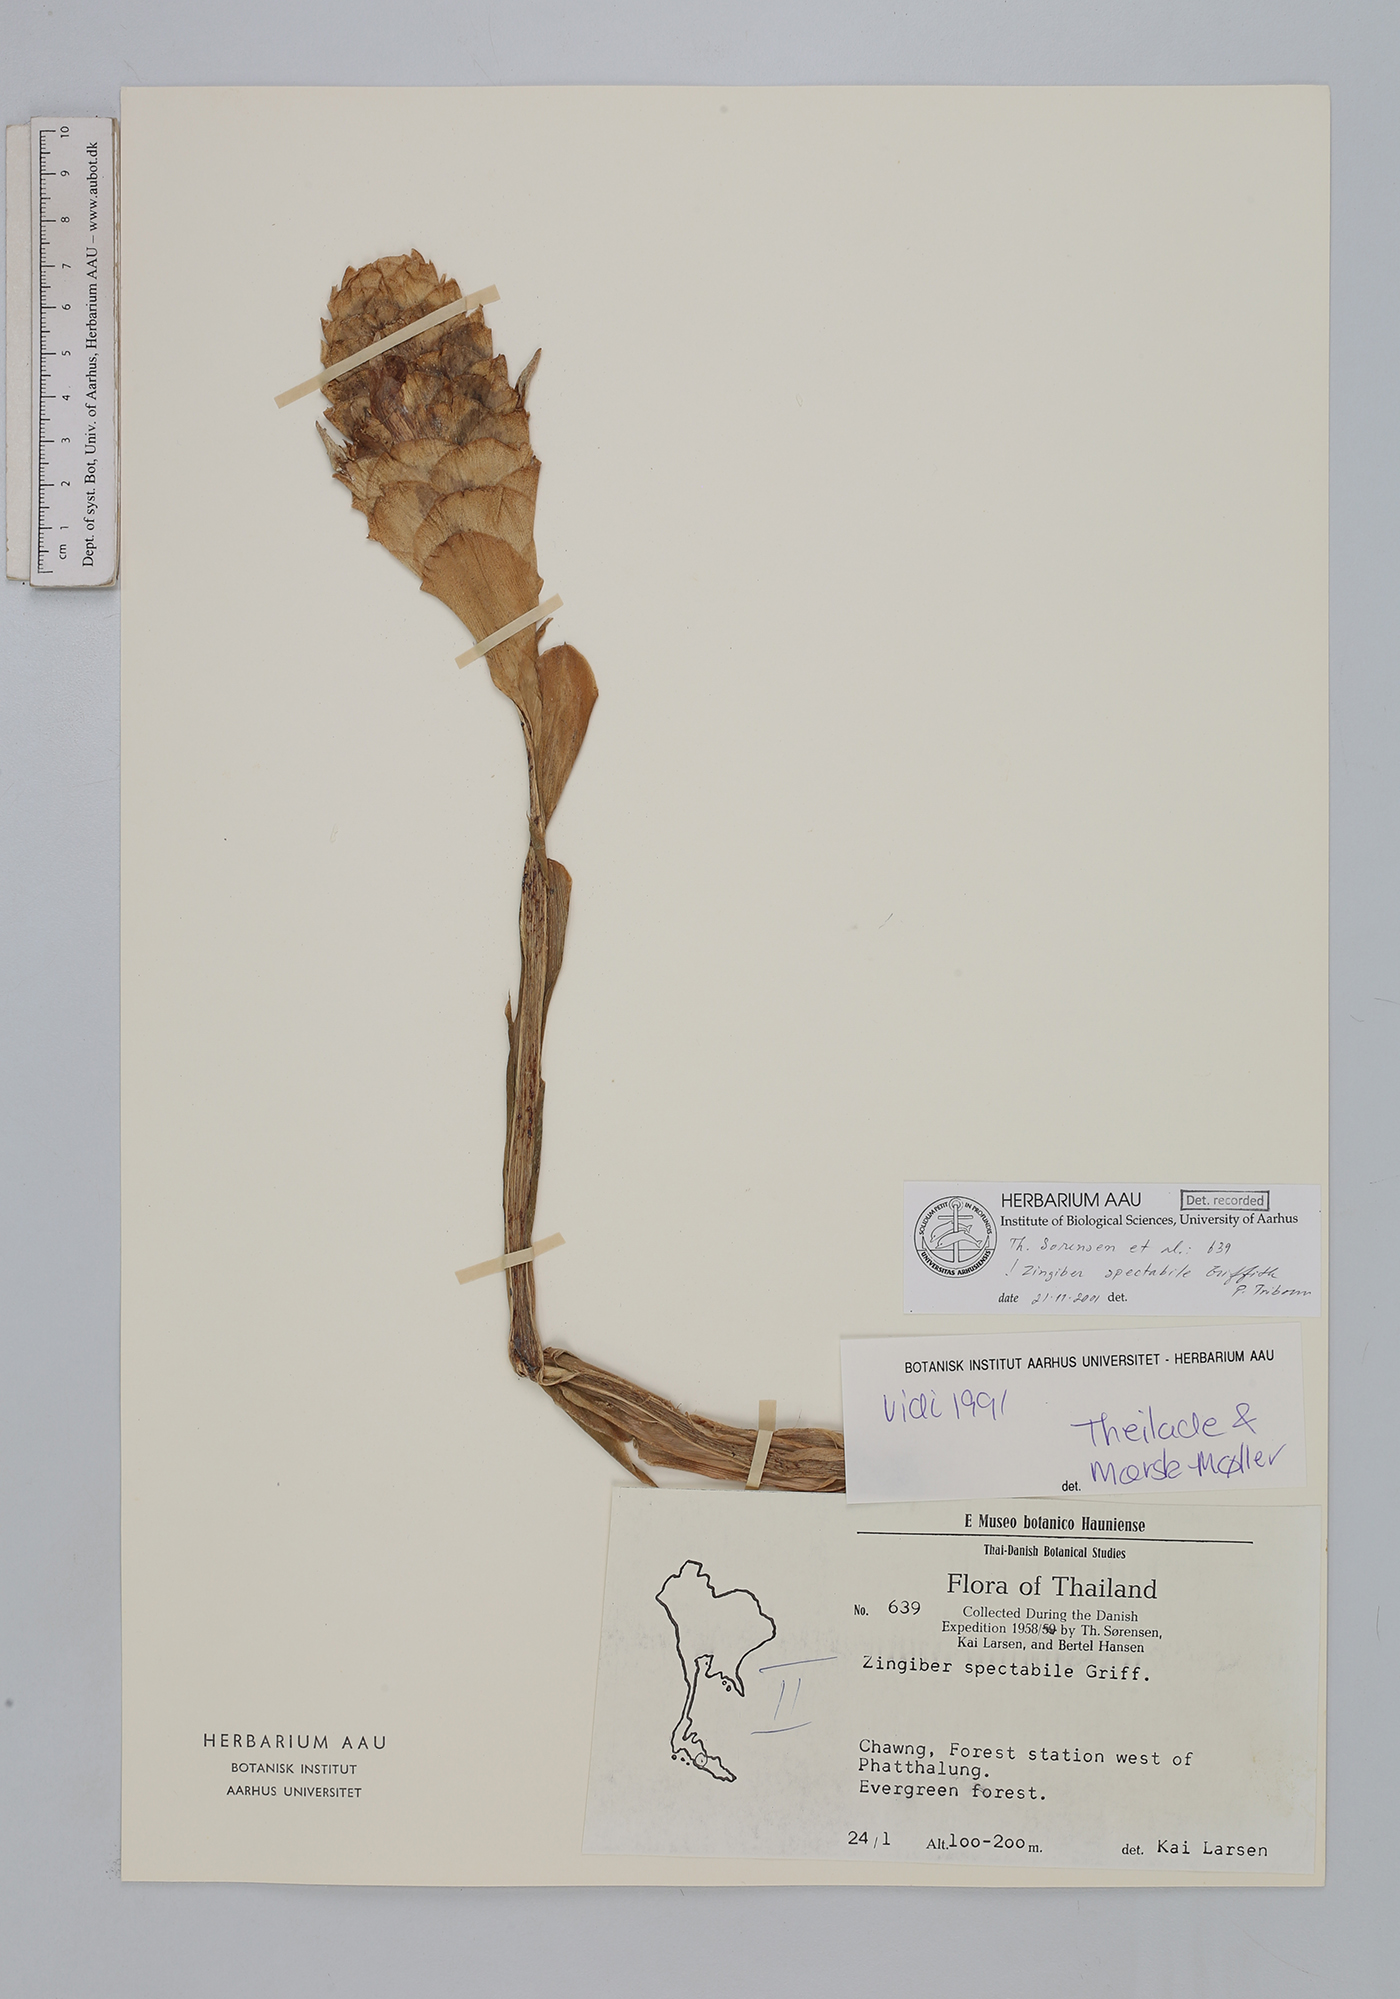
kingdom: Plantae
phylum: Tracheophyta
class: Liliopsida
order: Zingiberales
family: Zingiberaceae
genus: Zingiber
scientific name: Zingiber spectabile
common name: Beehive ginger
